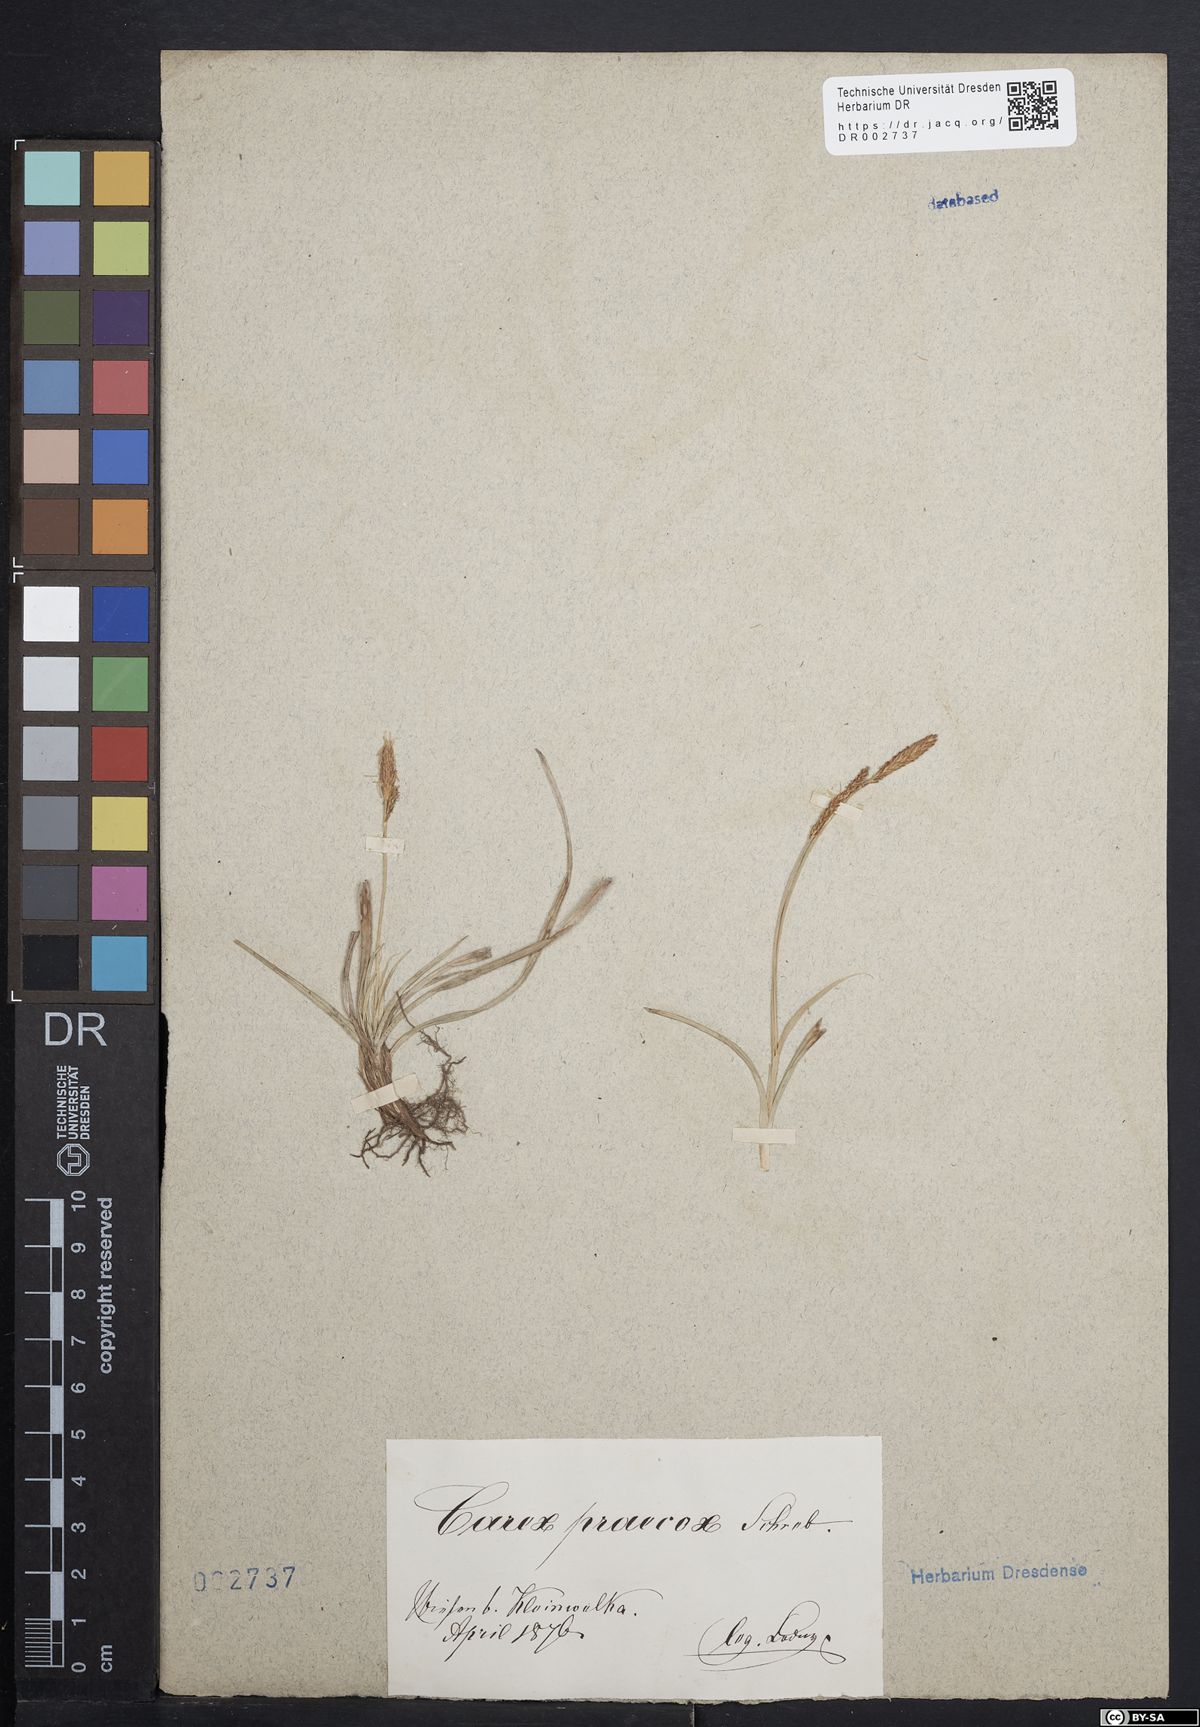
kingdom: Plantae
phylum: Tracheophyta
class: Liliopsida
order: Poales
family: Cyperaceae
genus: Carex
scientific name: Carex caryophyllea
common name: Spring sedge
